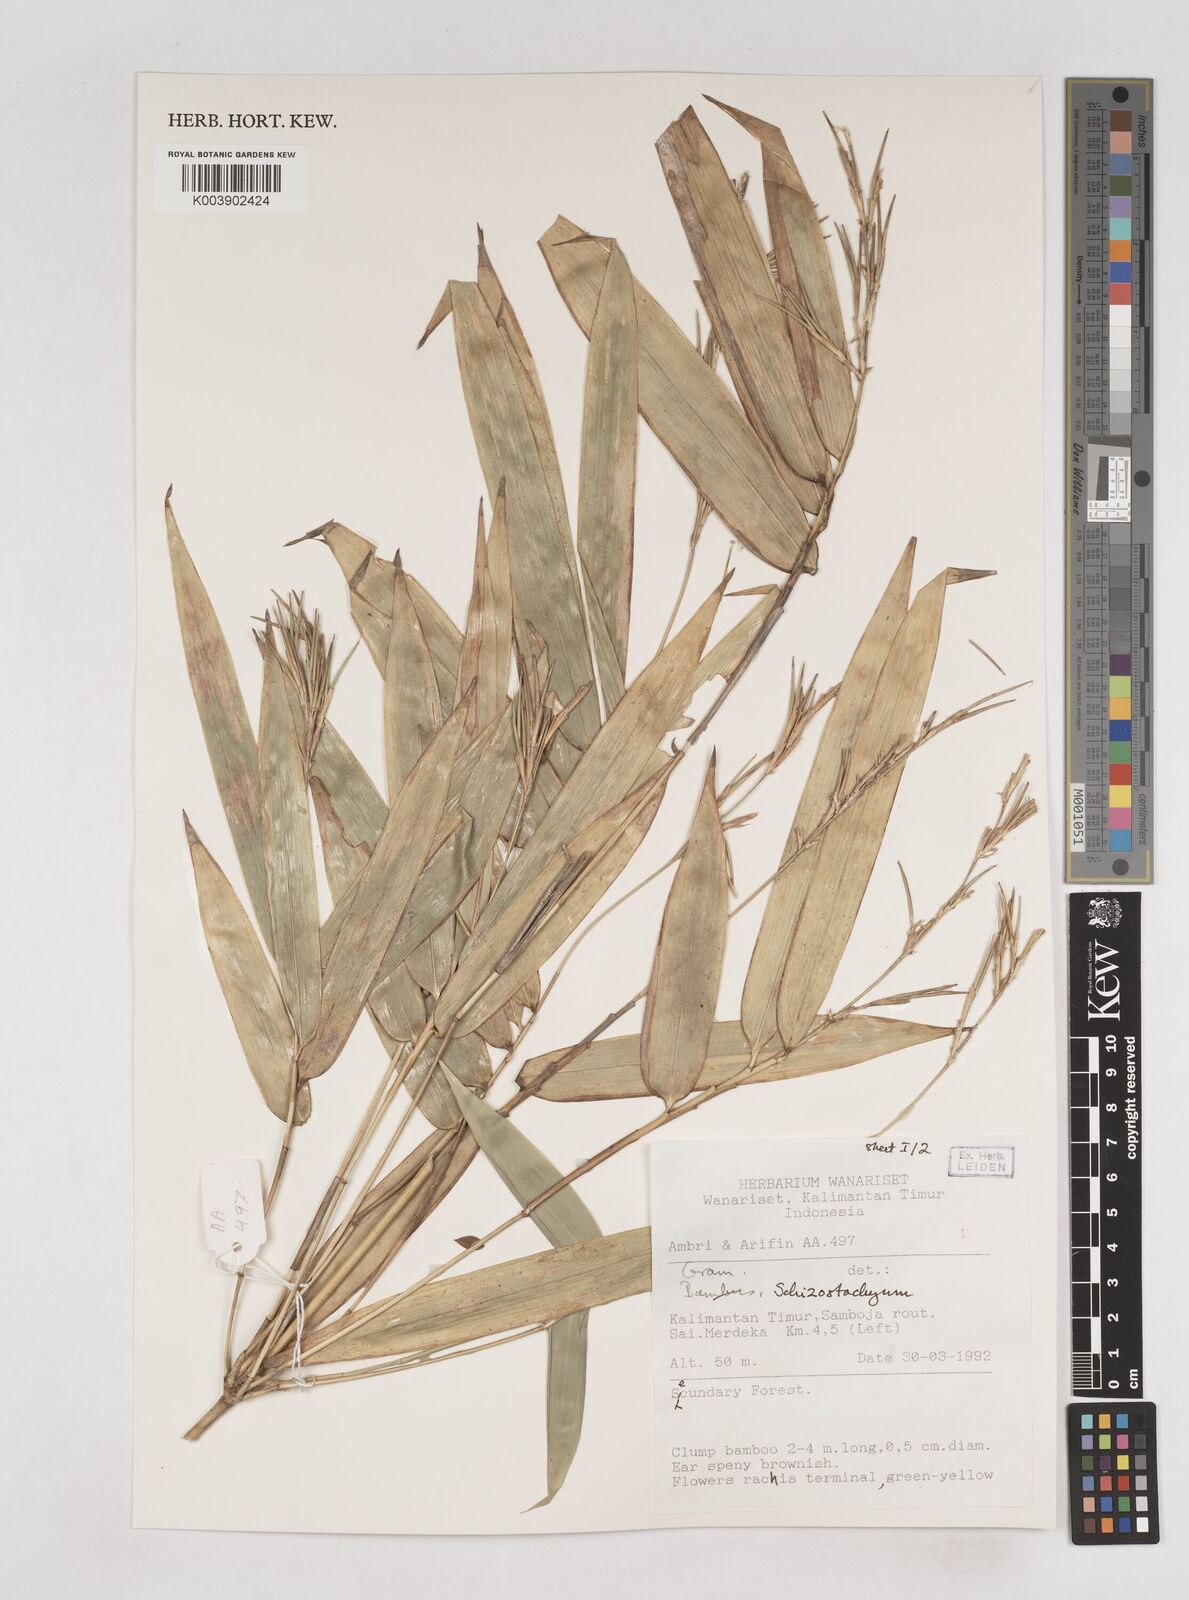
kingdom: Plantae
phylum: Tracheophyta
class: Liliopsida
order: Poales
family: Poaceae
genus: Schizostachyum
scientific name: Schizostachyum
